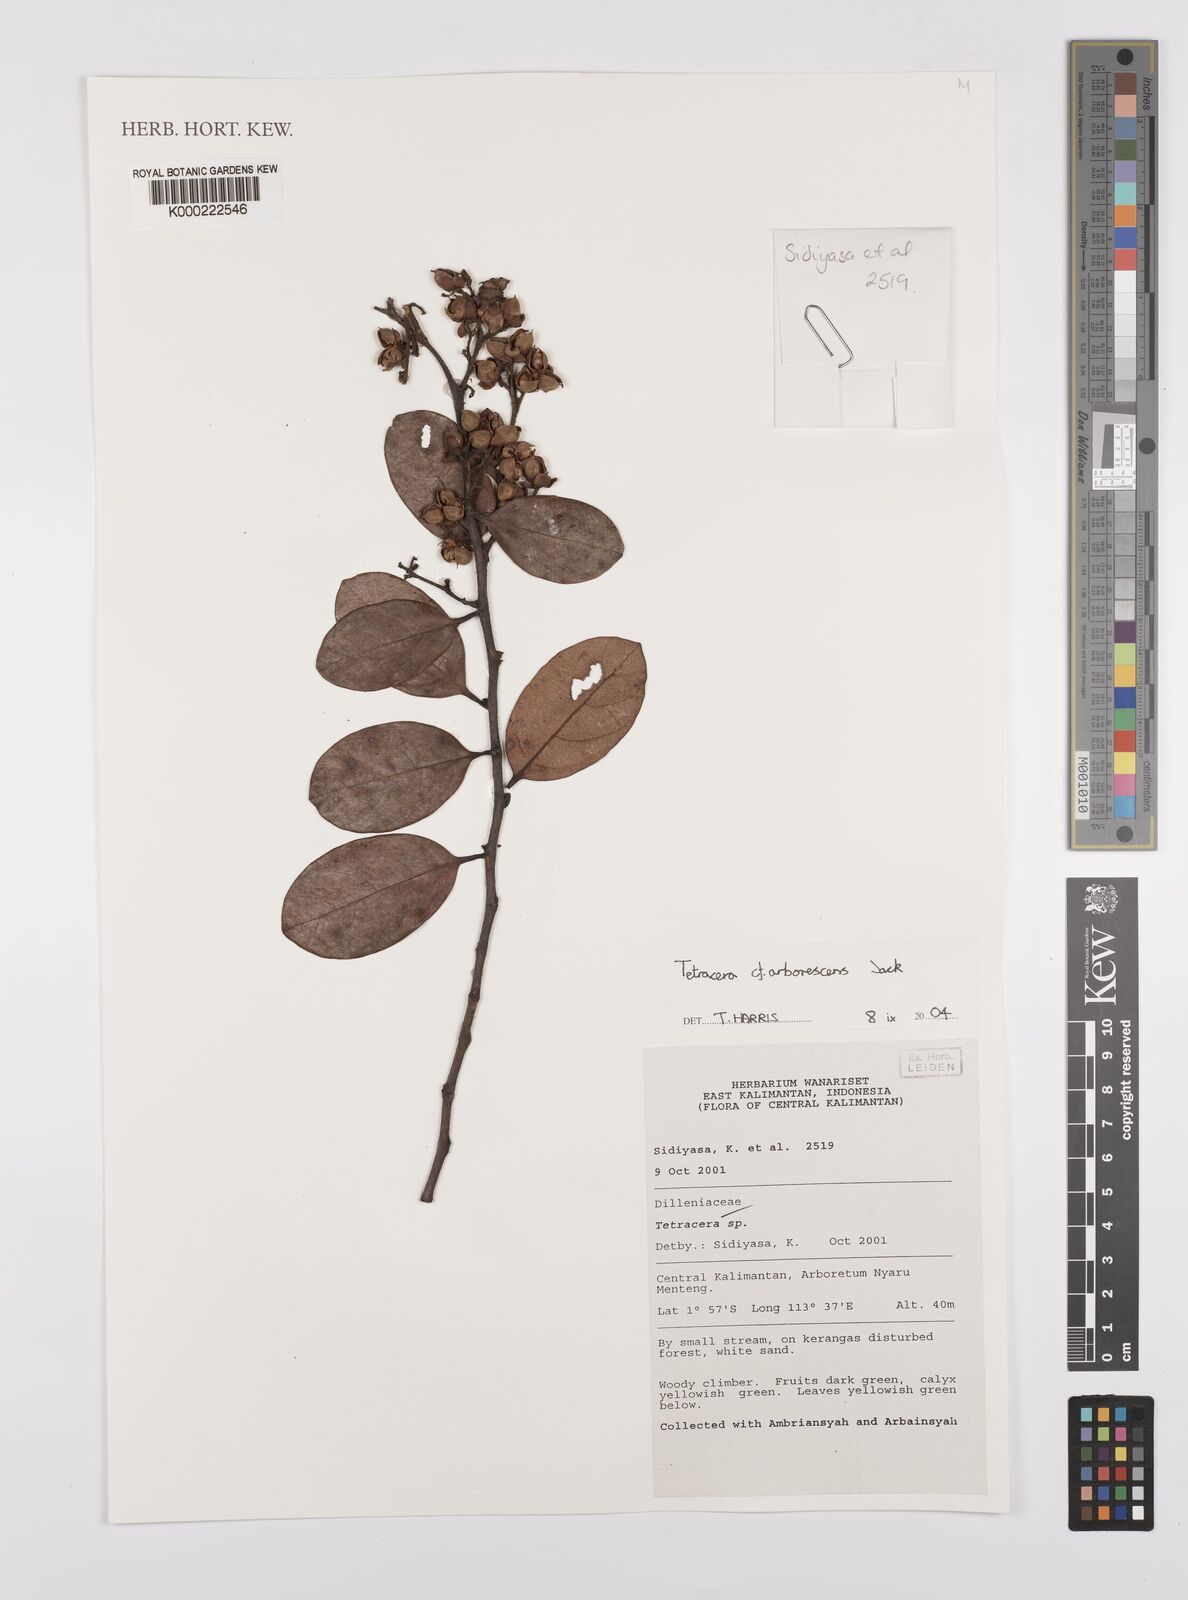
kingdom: Plantae
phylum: Tracheophyta
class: Magnoliopsida
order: Dilleniales
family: Dilleniaceae
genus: Tetracera
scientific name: Tetracera arborescens
